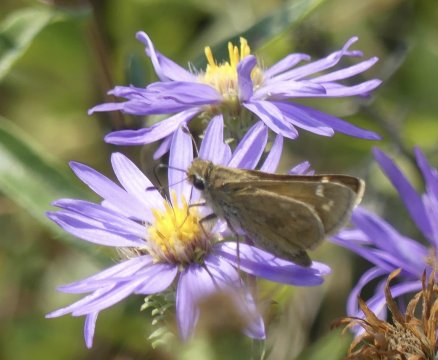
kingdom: Animalia
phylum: Arthropoda
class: Insecta
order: Lepidoptera
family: Hesperiidae
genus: Atalopedes
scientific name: Atalopedes campestris
